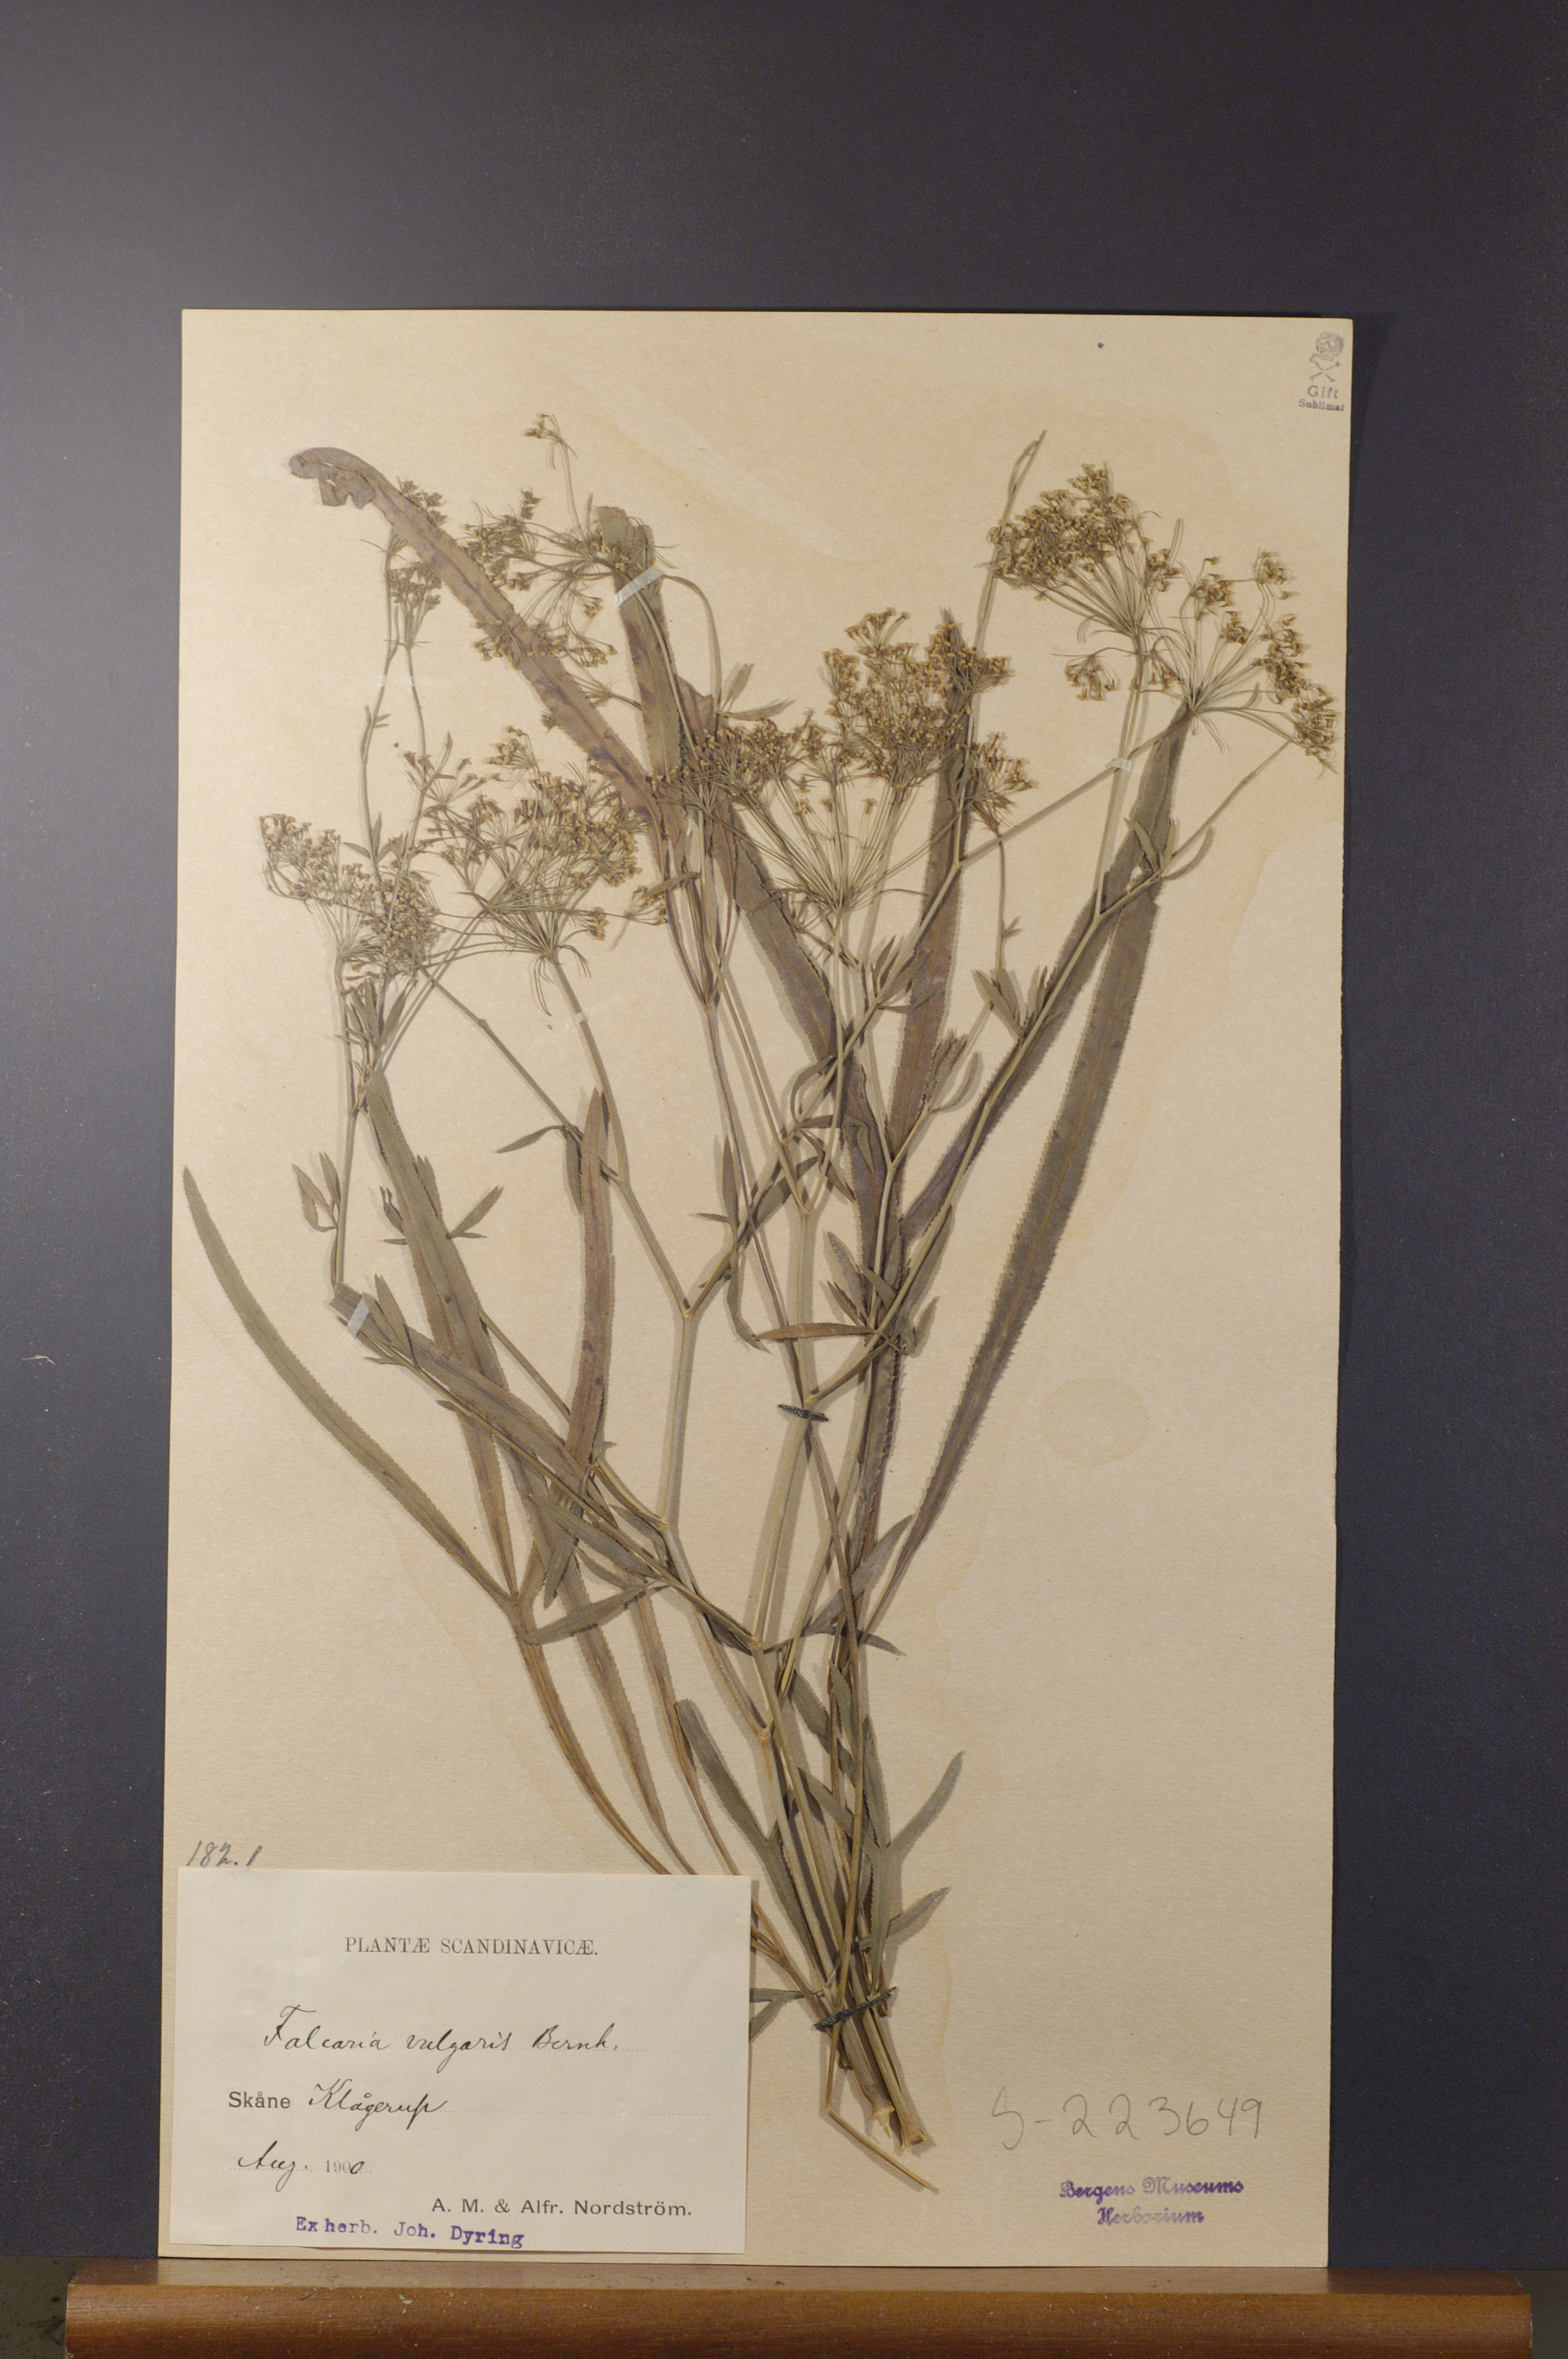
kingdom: Plantae
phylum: Tracheophyta
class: Magnoliopsida
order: Apiales
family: Apiaceae
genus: Falcaria
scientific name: Falcaria vulgaris
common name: Longleaf
